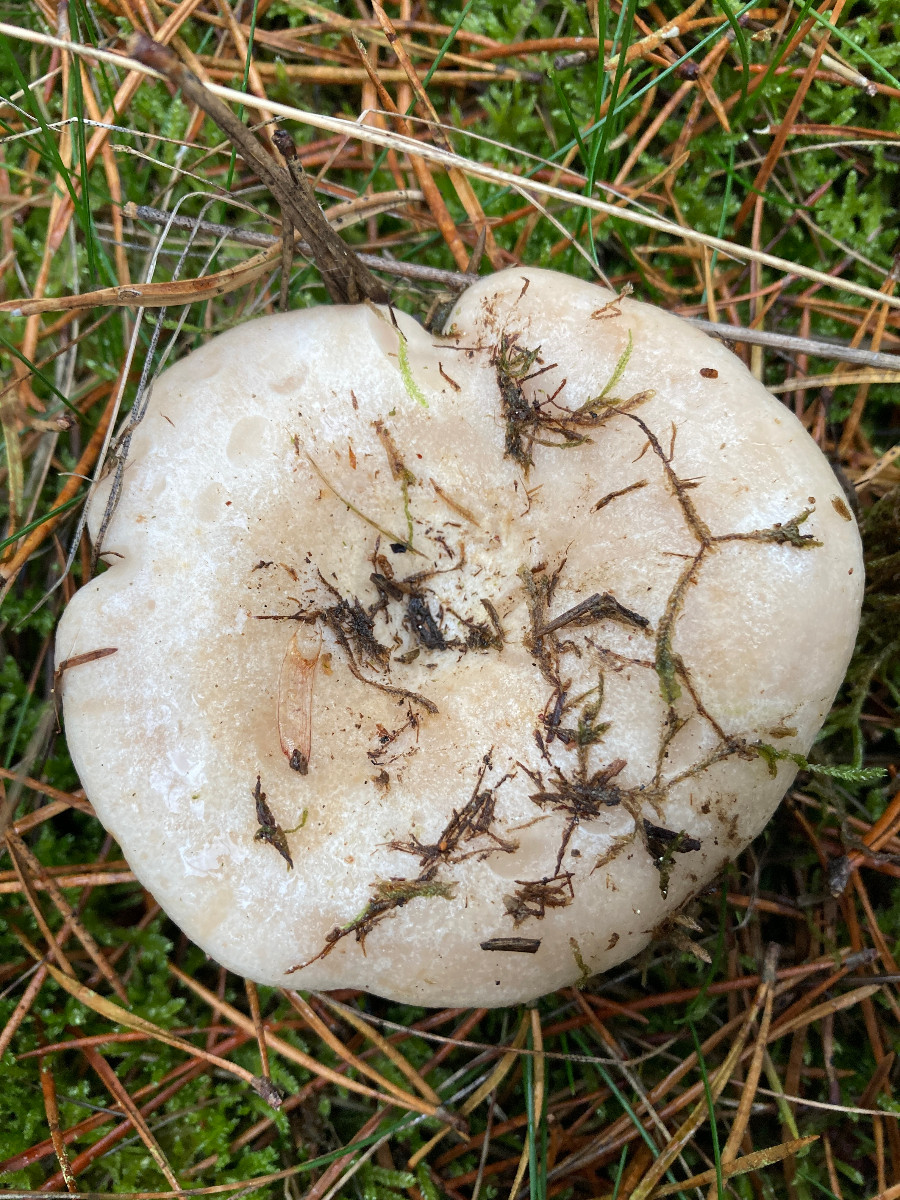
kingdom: Fungi
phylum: Basidiomycota
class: Agaricomycetes
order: Russulales
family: Russulaceae
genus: Lactarius
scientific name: Lactarius musteus
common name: elfenbens-mælkehat
